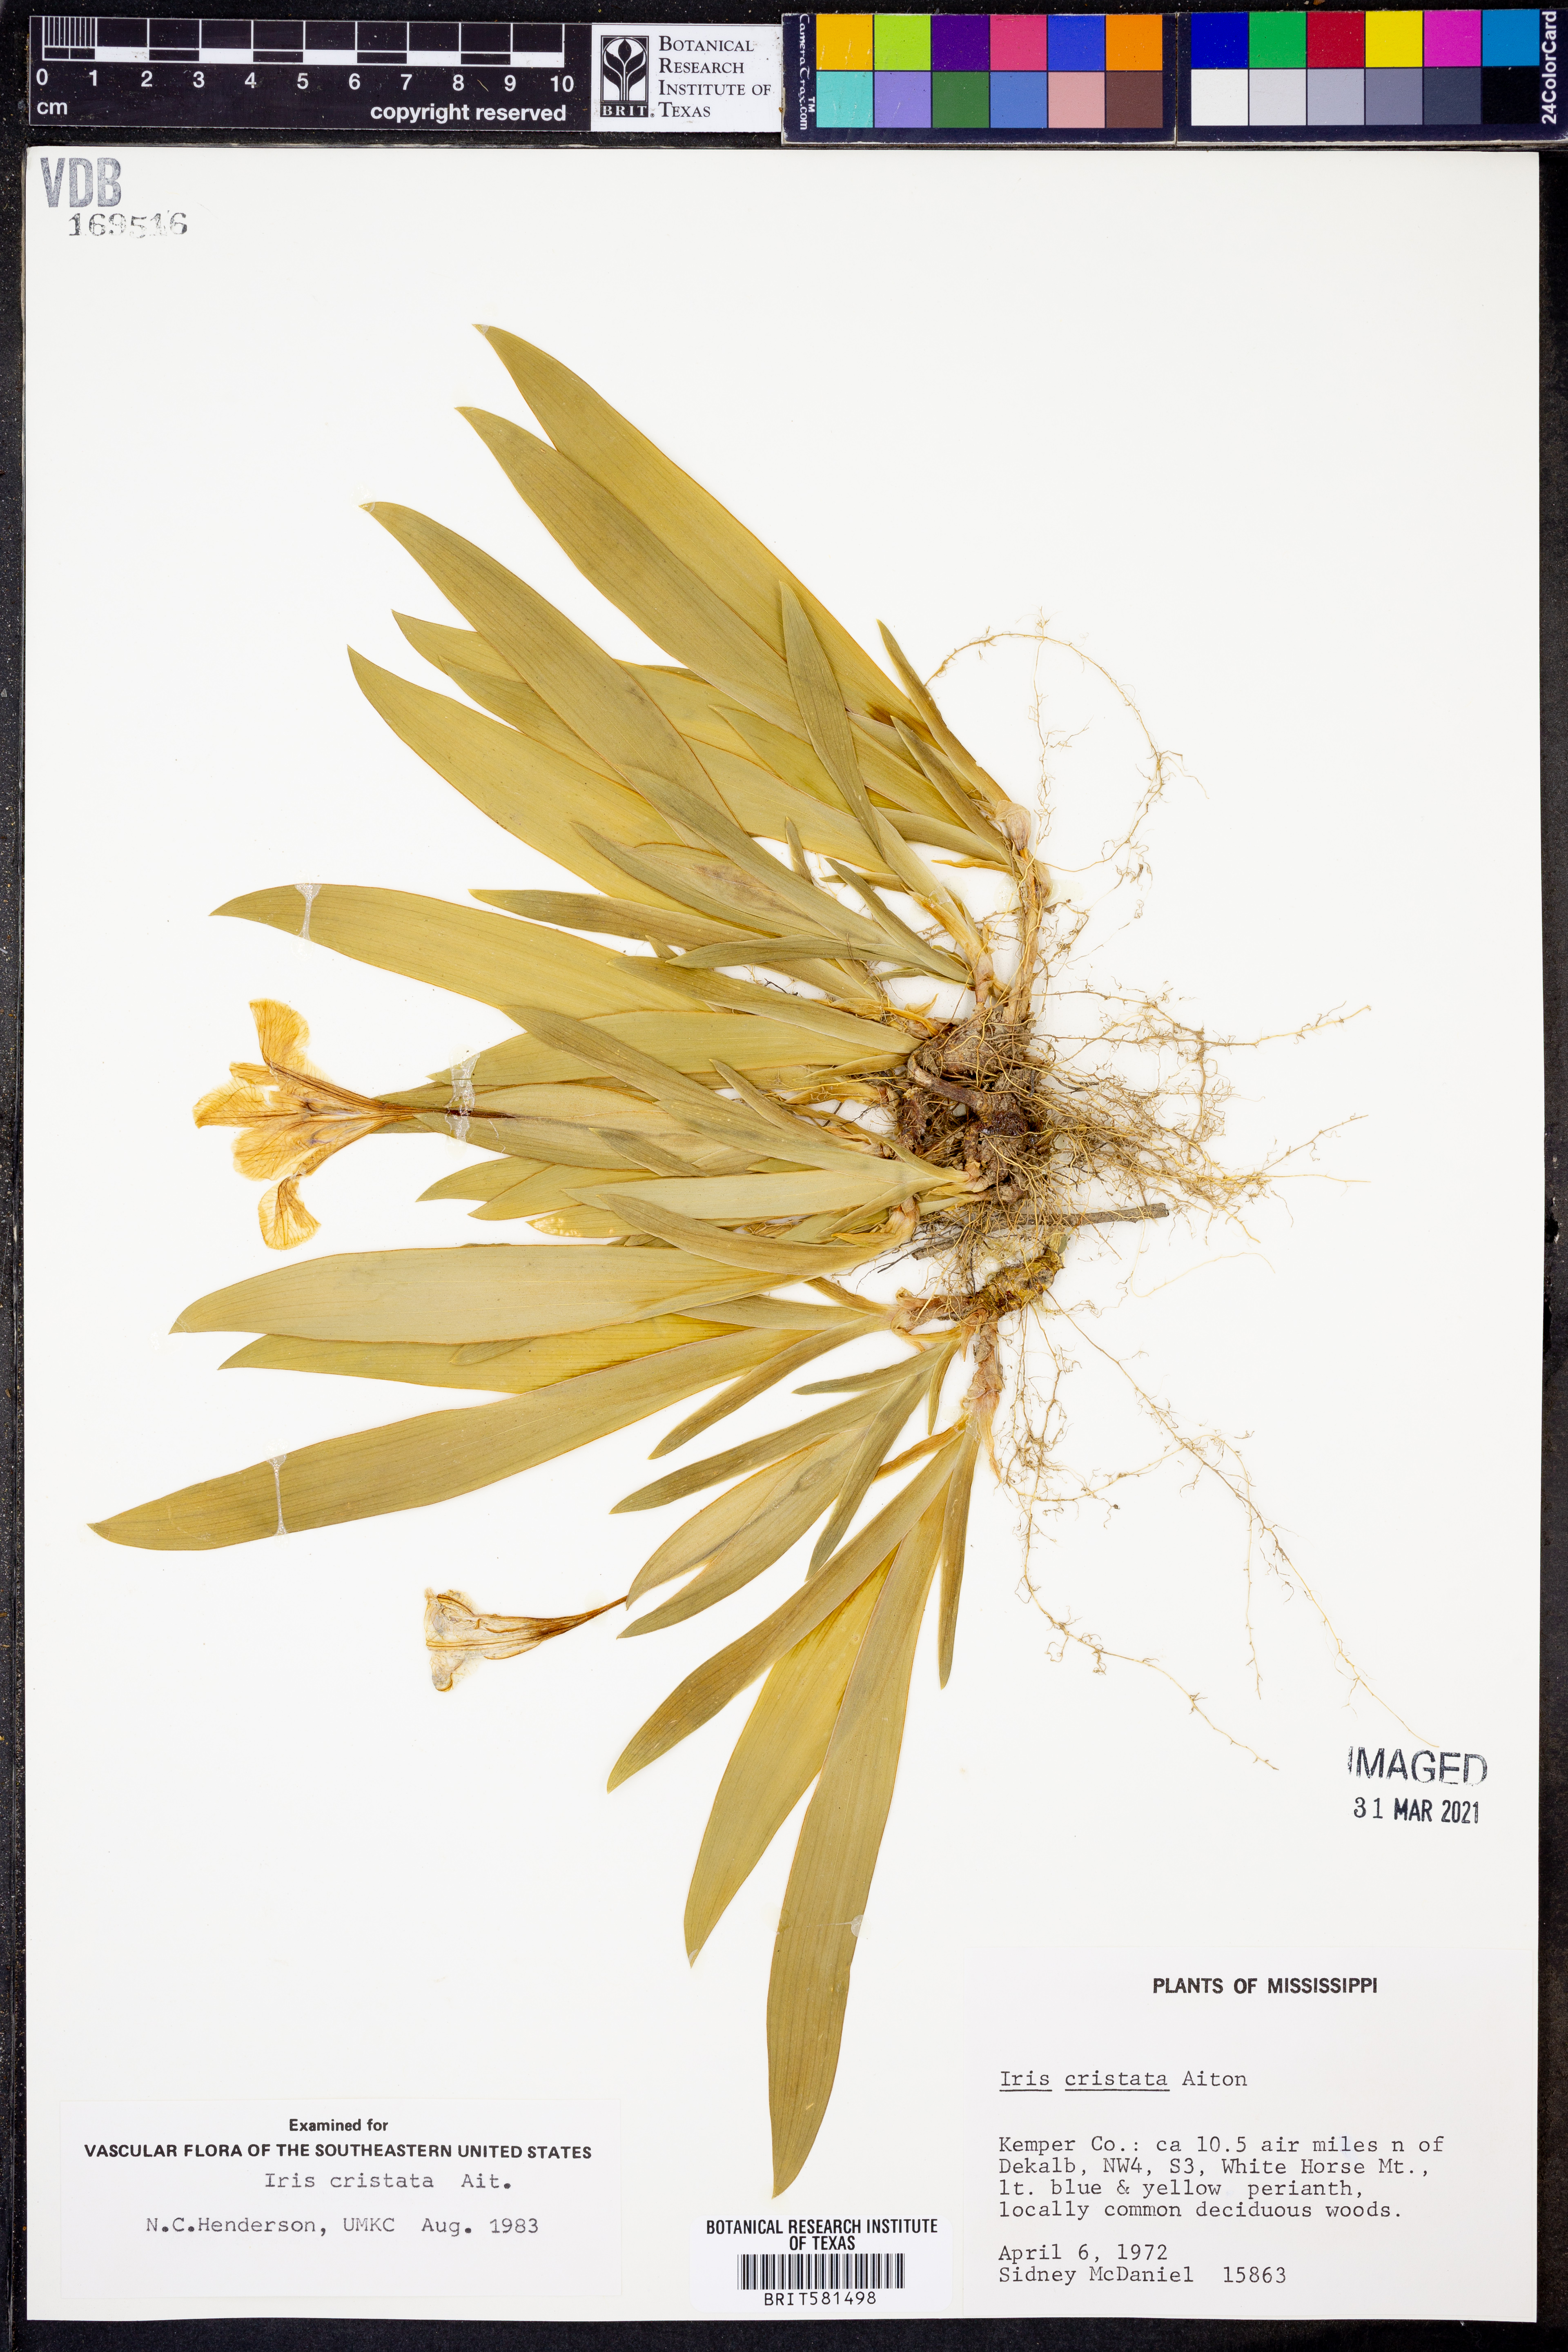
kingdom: Plantae
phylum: Tracheophyta
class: Liliopsida
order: Asparagales
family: Iridaceae
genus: Iris
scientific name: Iris cristata
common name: Crested iris
